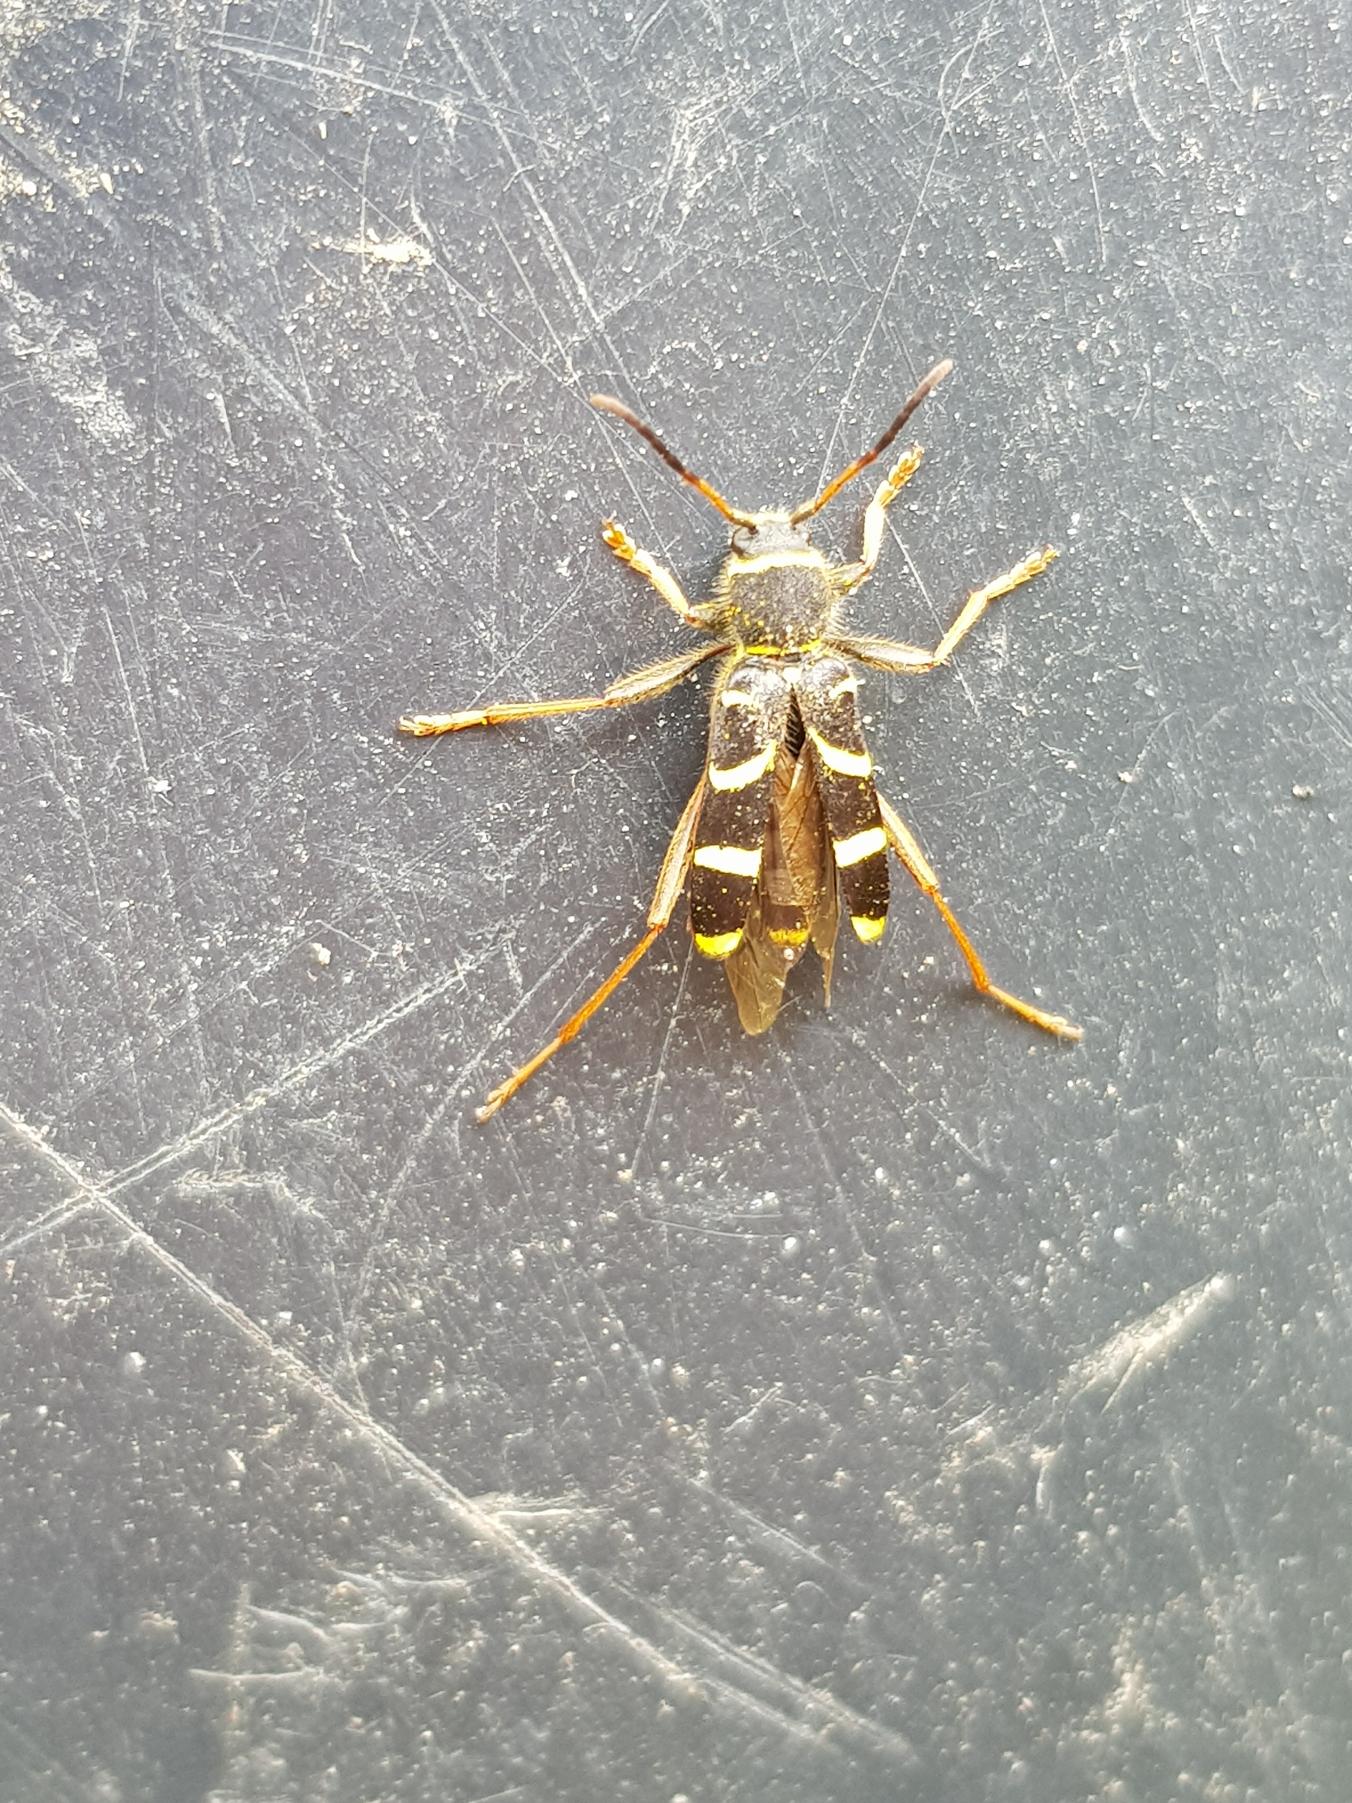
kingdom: Animalia
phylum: Arthropoda
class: Insecta
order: Coleoptera
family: Cerambycidae
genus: Clytus
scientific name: Clytus arietis
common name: Lille hvepsebuk
